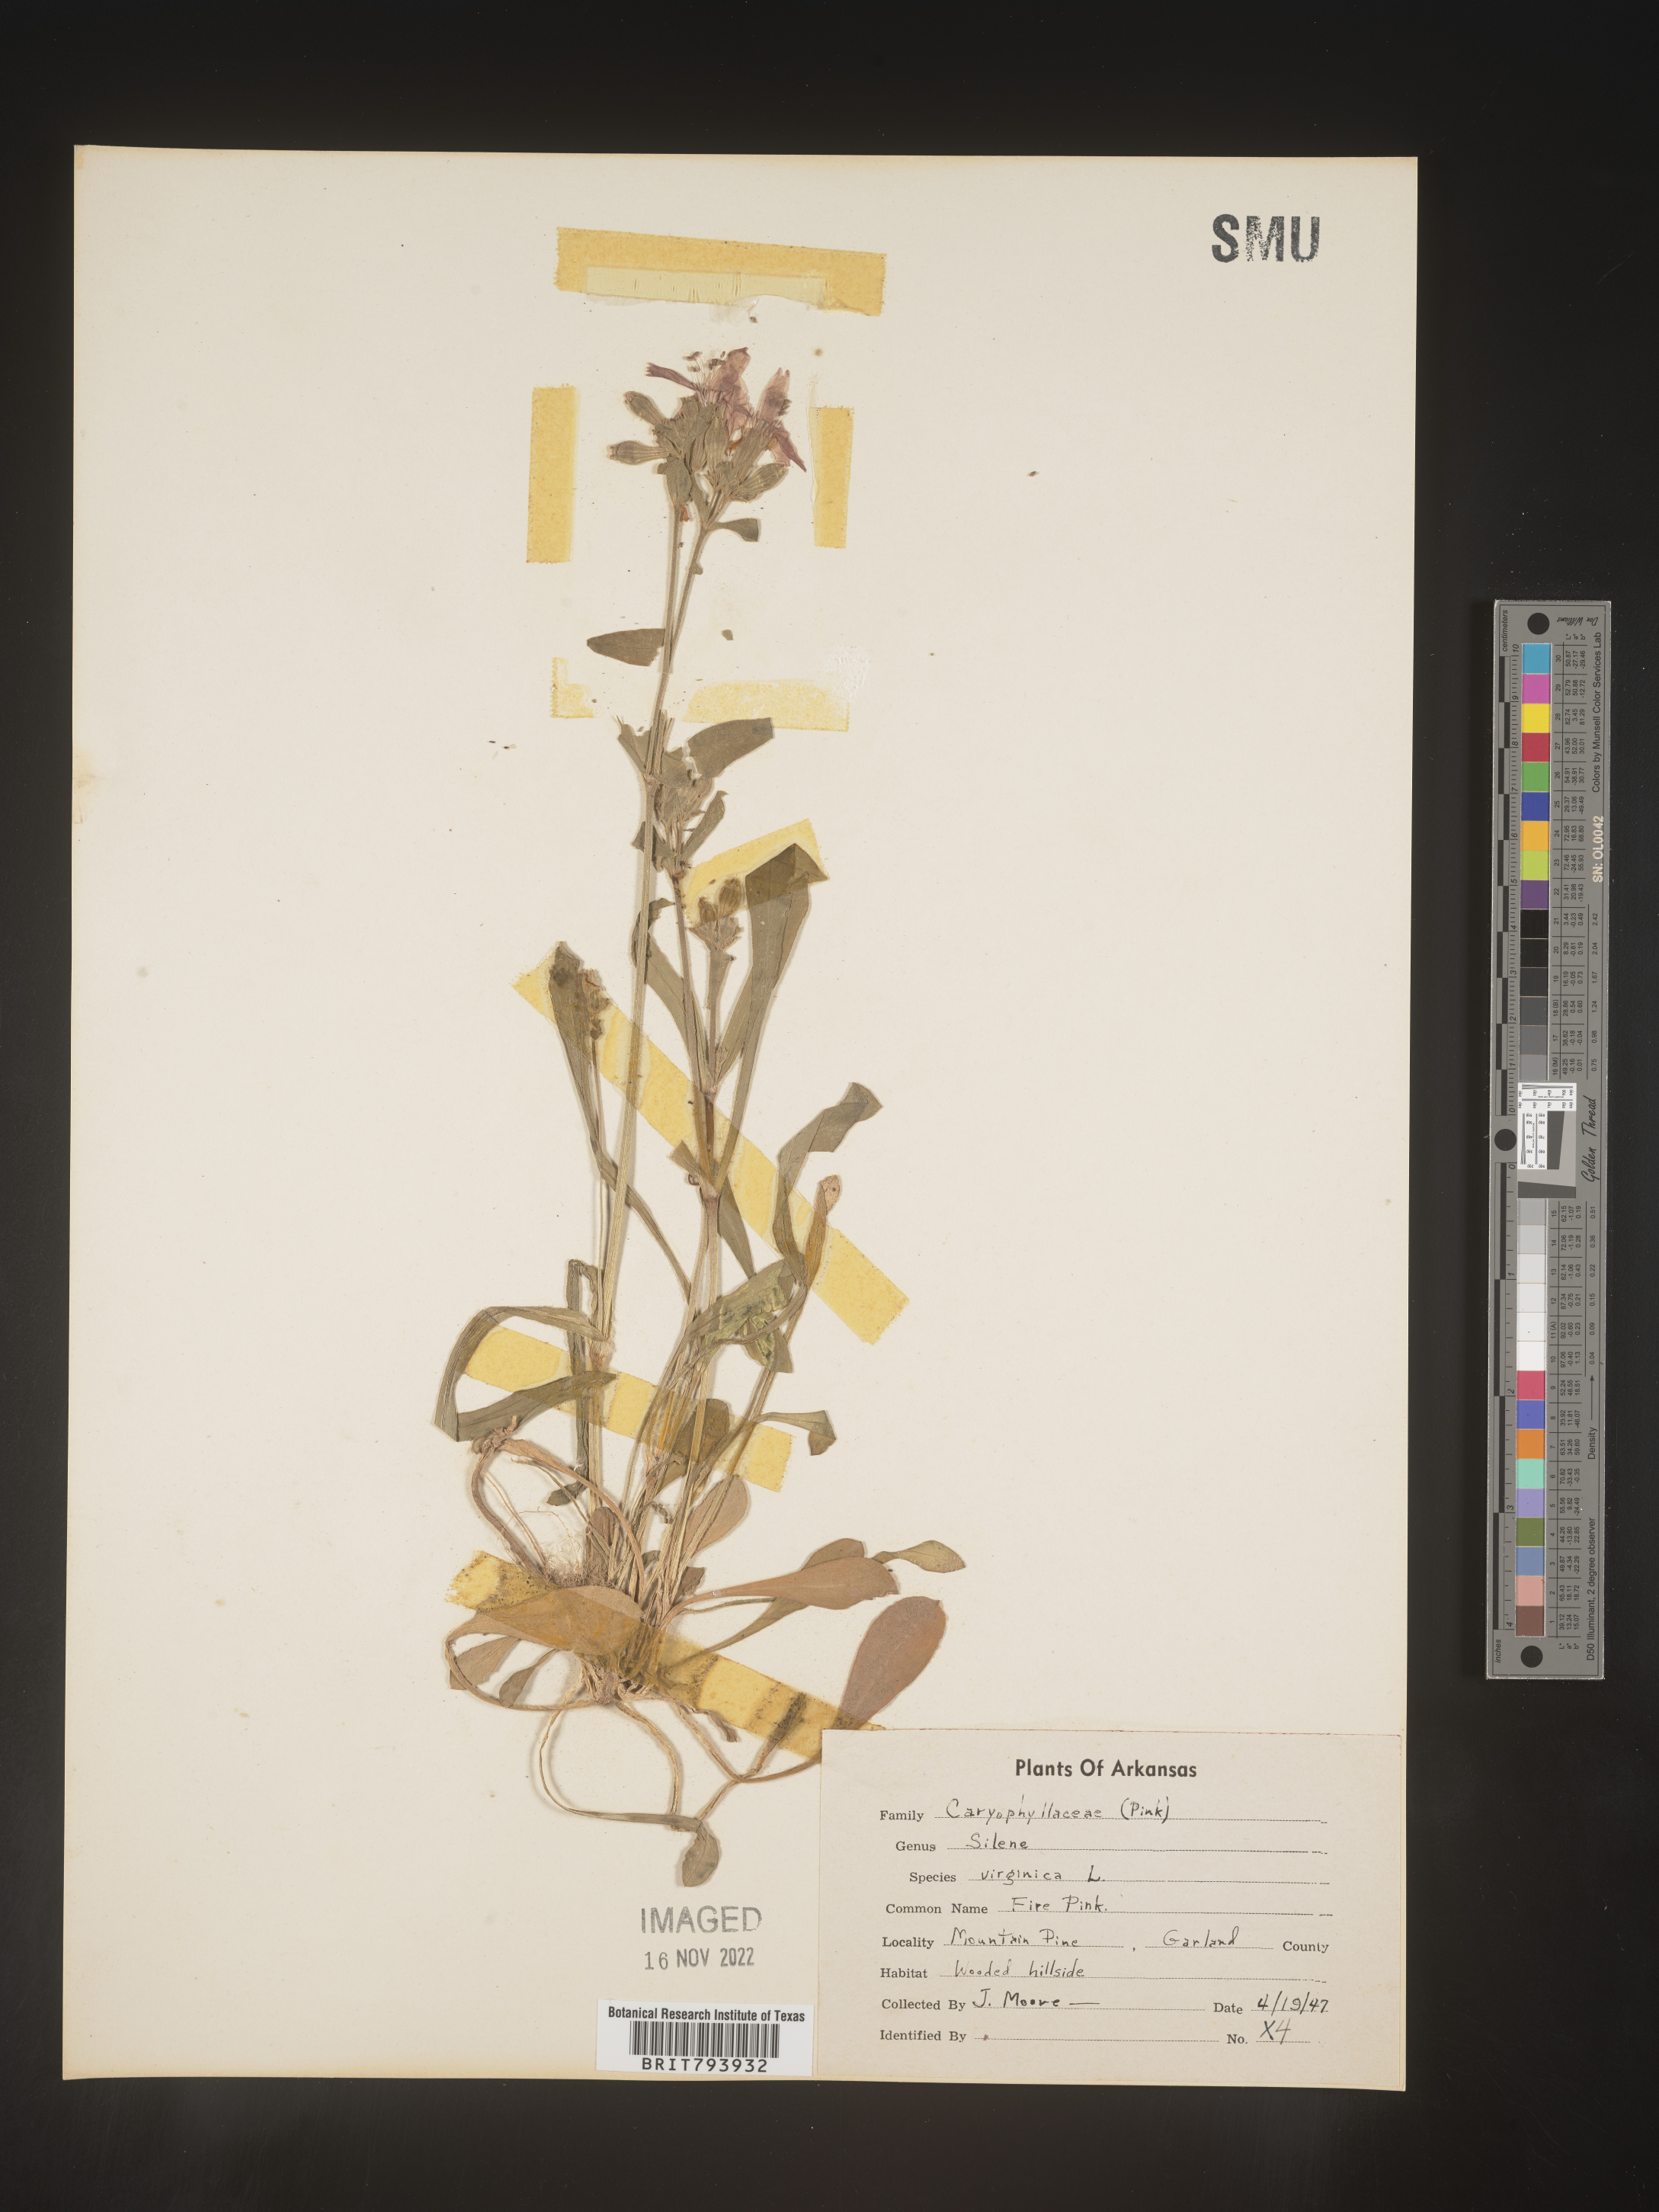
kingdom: Plantae
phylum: Tracheophyta
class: Magnoliopsida
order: Caryophyllales
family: Caryophyllaceae
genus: Silene
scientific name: Silene virginica
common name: Fire-pink
